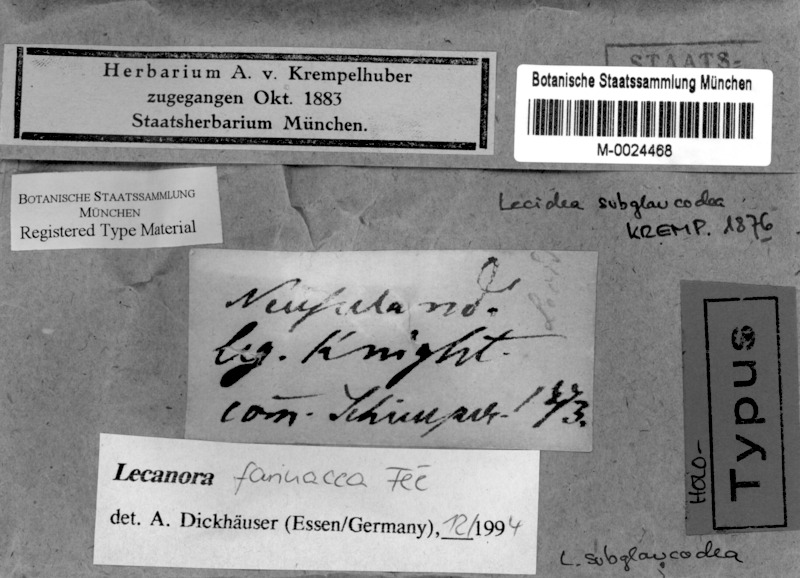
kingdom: Fungi
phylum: Ascomycota
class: Lecanoromycetes
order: Lecanorales
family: Lecanoraceae
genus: Lecanora
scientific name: Lecanora farinacea
